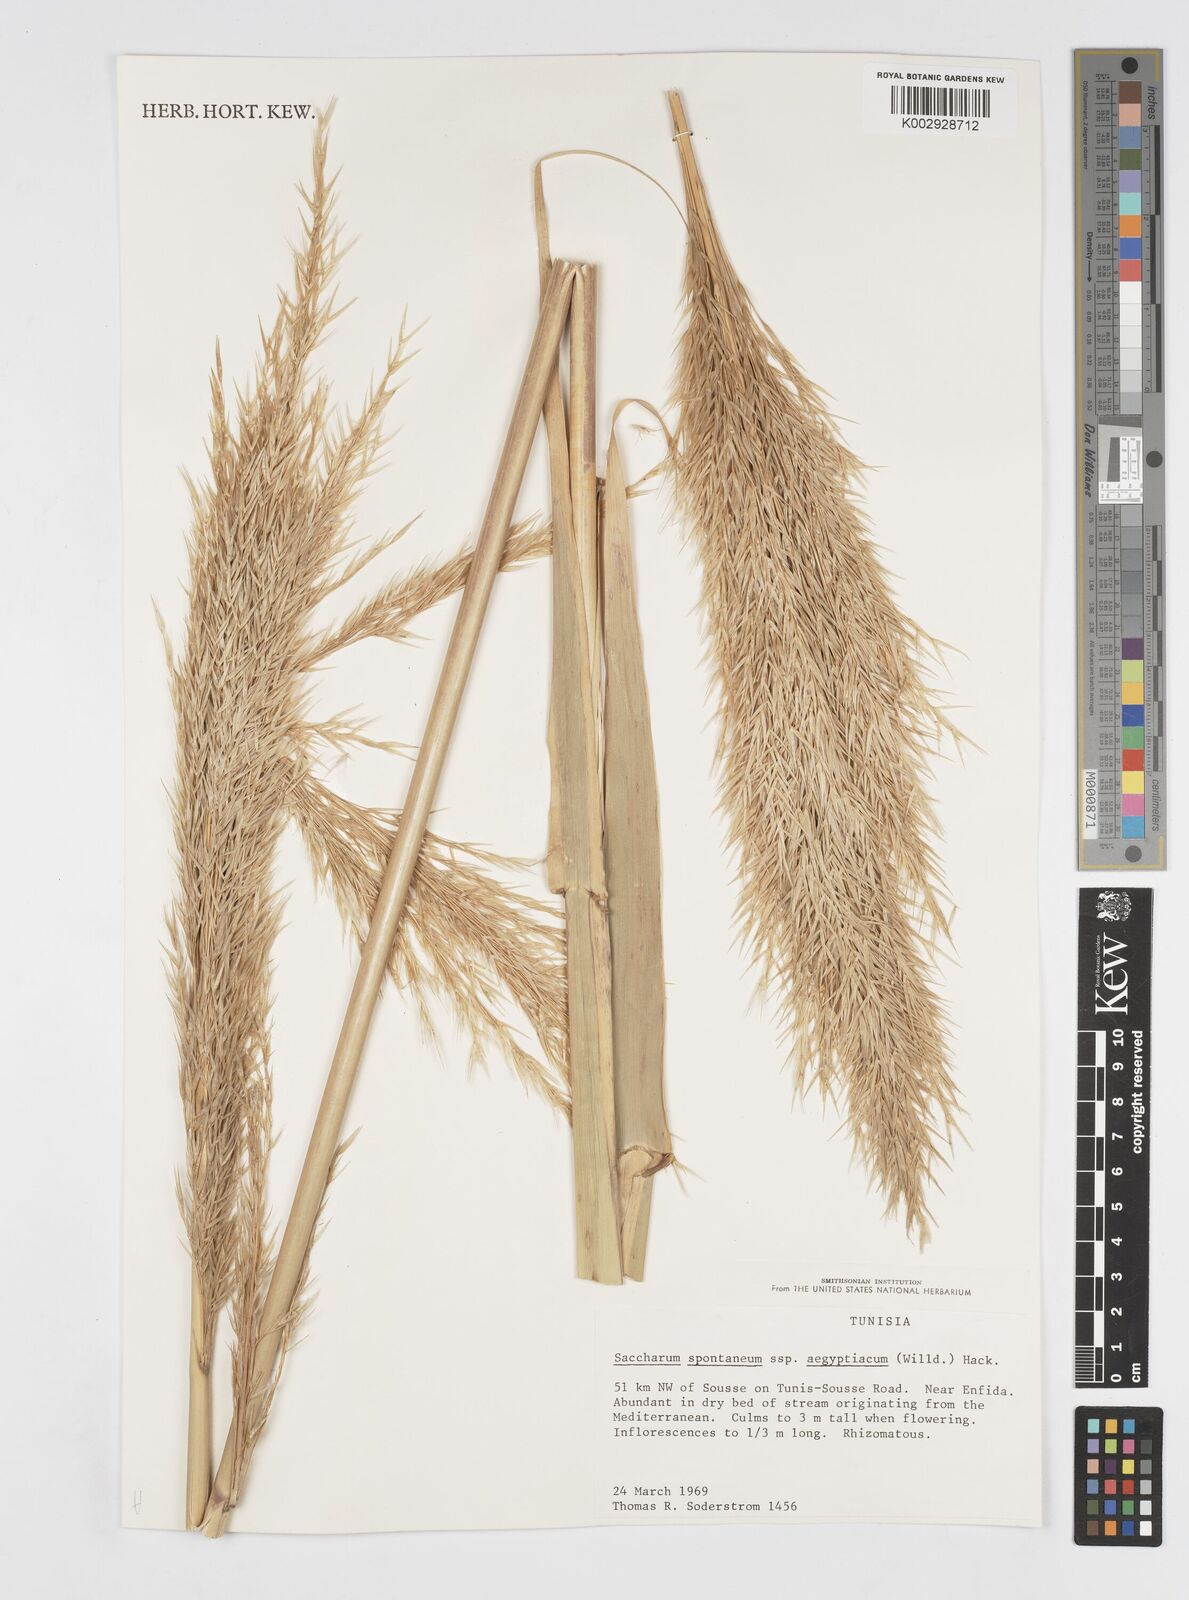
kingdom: Plantae
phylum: Tracheophyta
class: Liliopsida
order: Poales
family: Poaceae
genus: Saccharum
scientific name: Saccharum spontaneum
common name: Wild sugarcane
